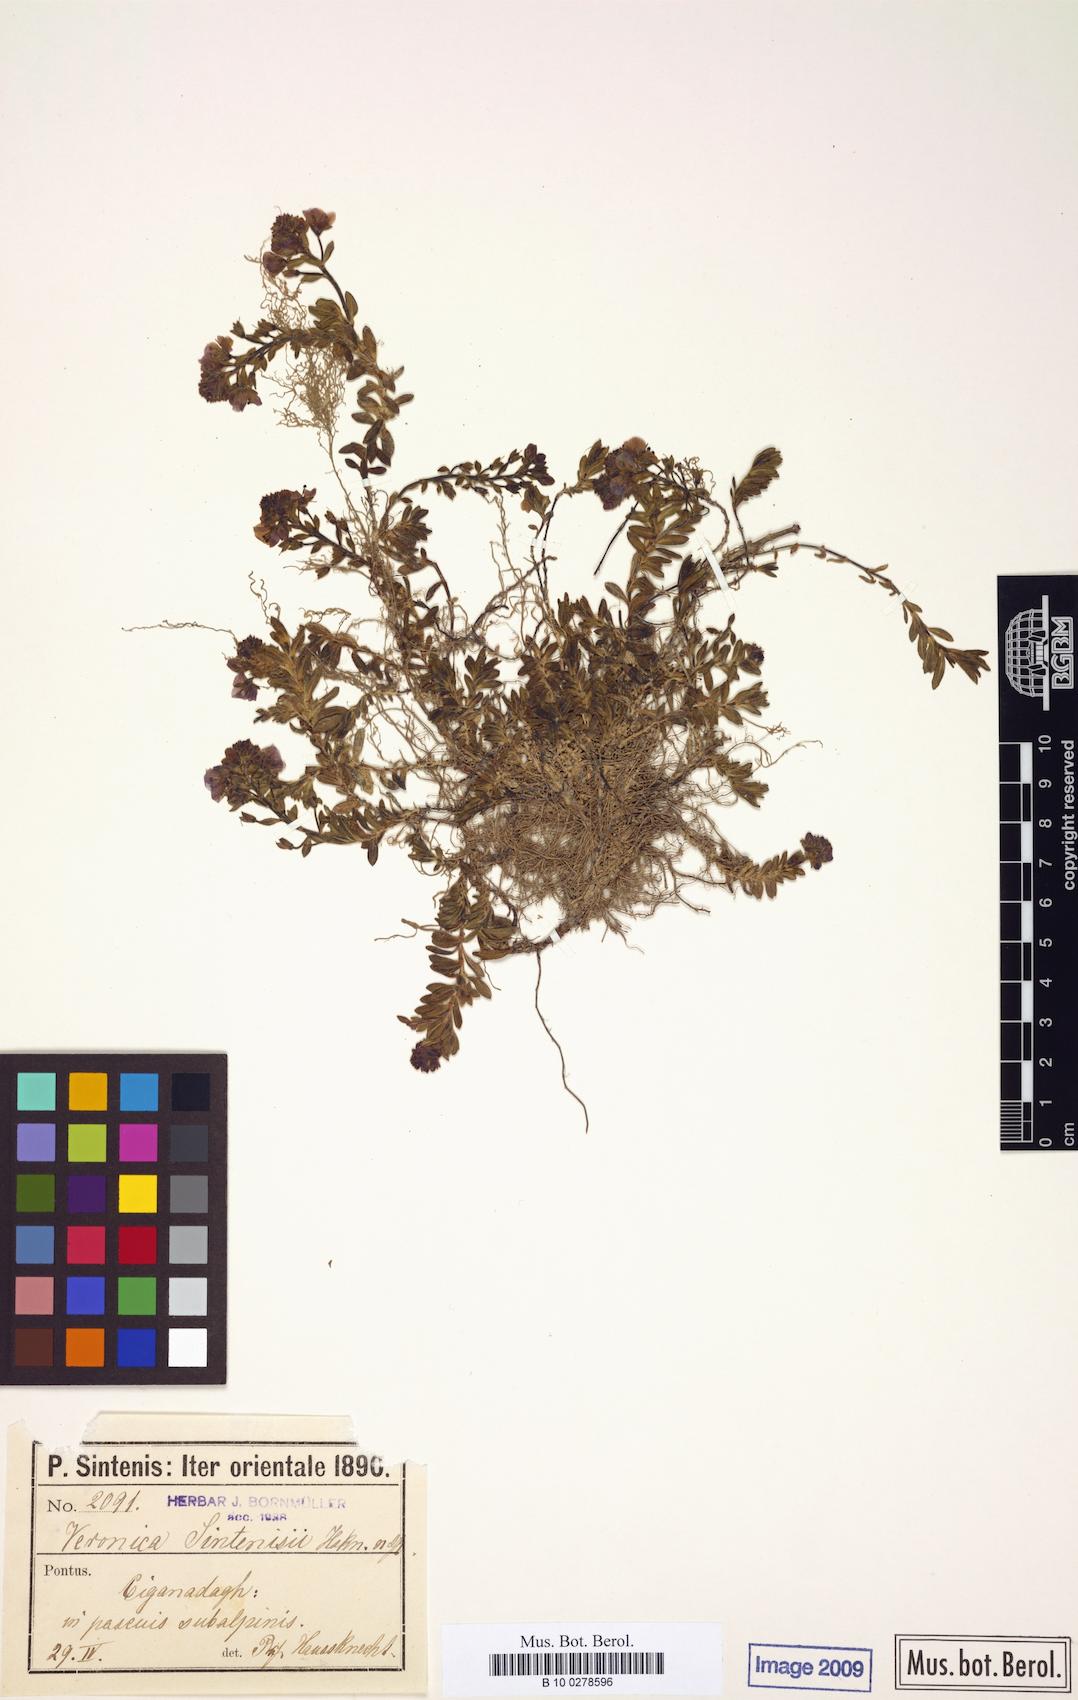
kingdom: Plantae
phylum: Tracheophyta
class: Magnoliopsida
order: Lamiales
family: Plantaginaceae
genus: Veronica
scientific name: Veronica denudata
